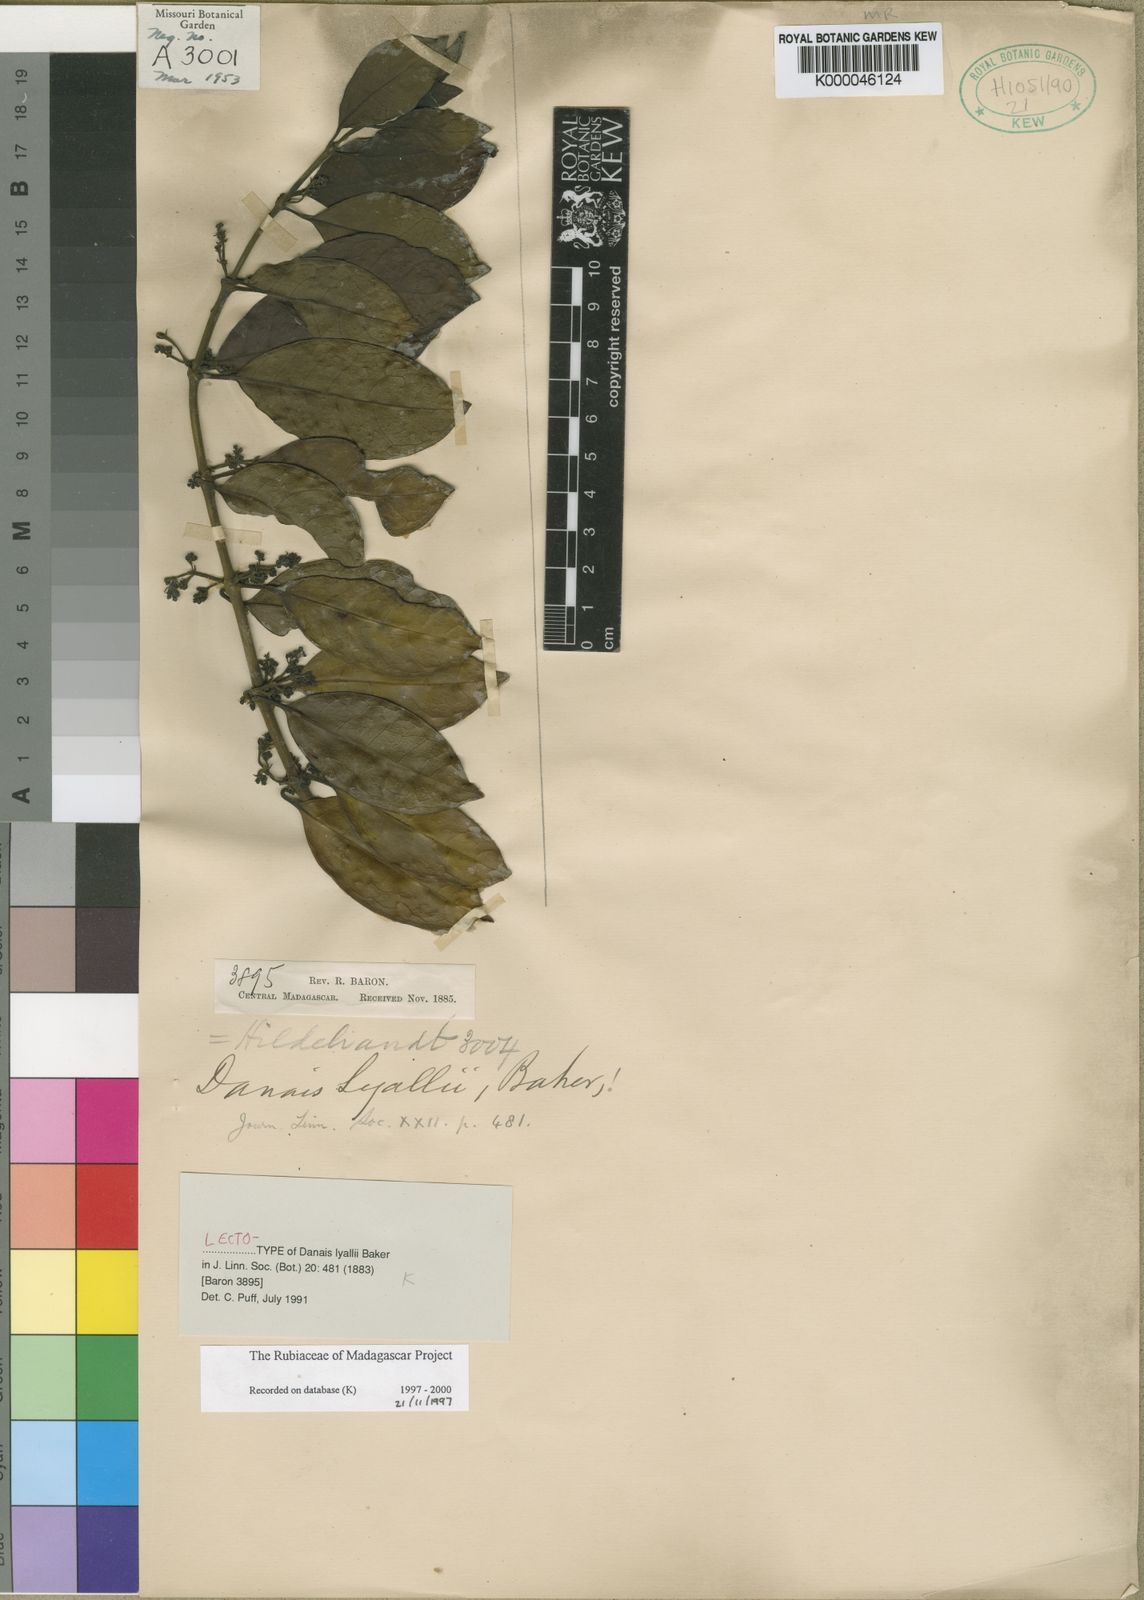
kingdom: Plantae
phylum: Tracheophyta
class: Magnoliopsida
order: Gentianales
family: Rubiaceae
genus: Danais
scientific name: Danais fragrans
